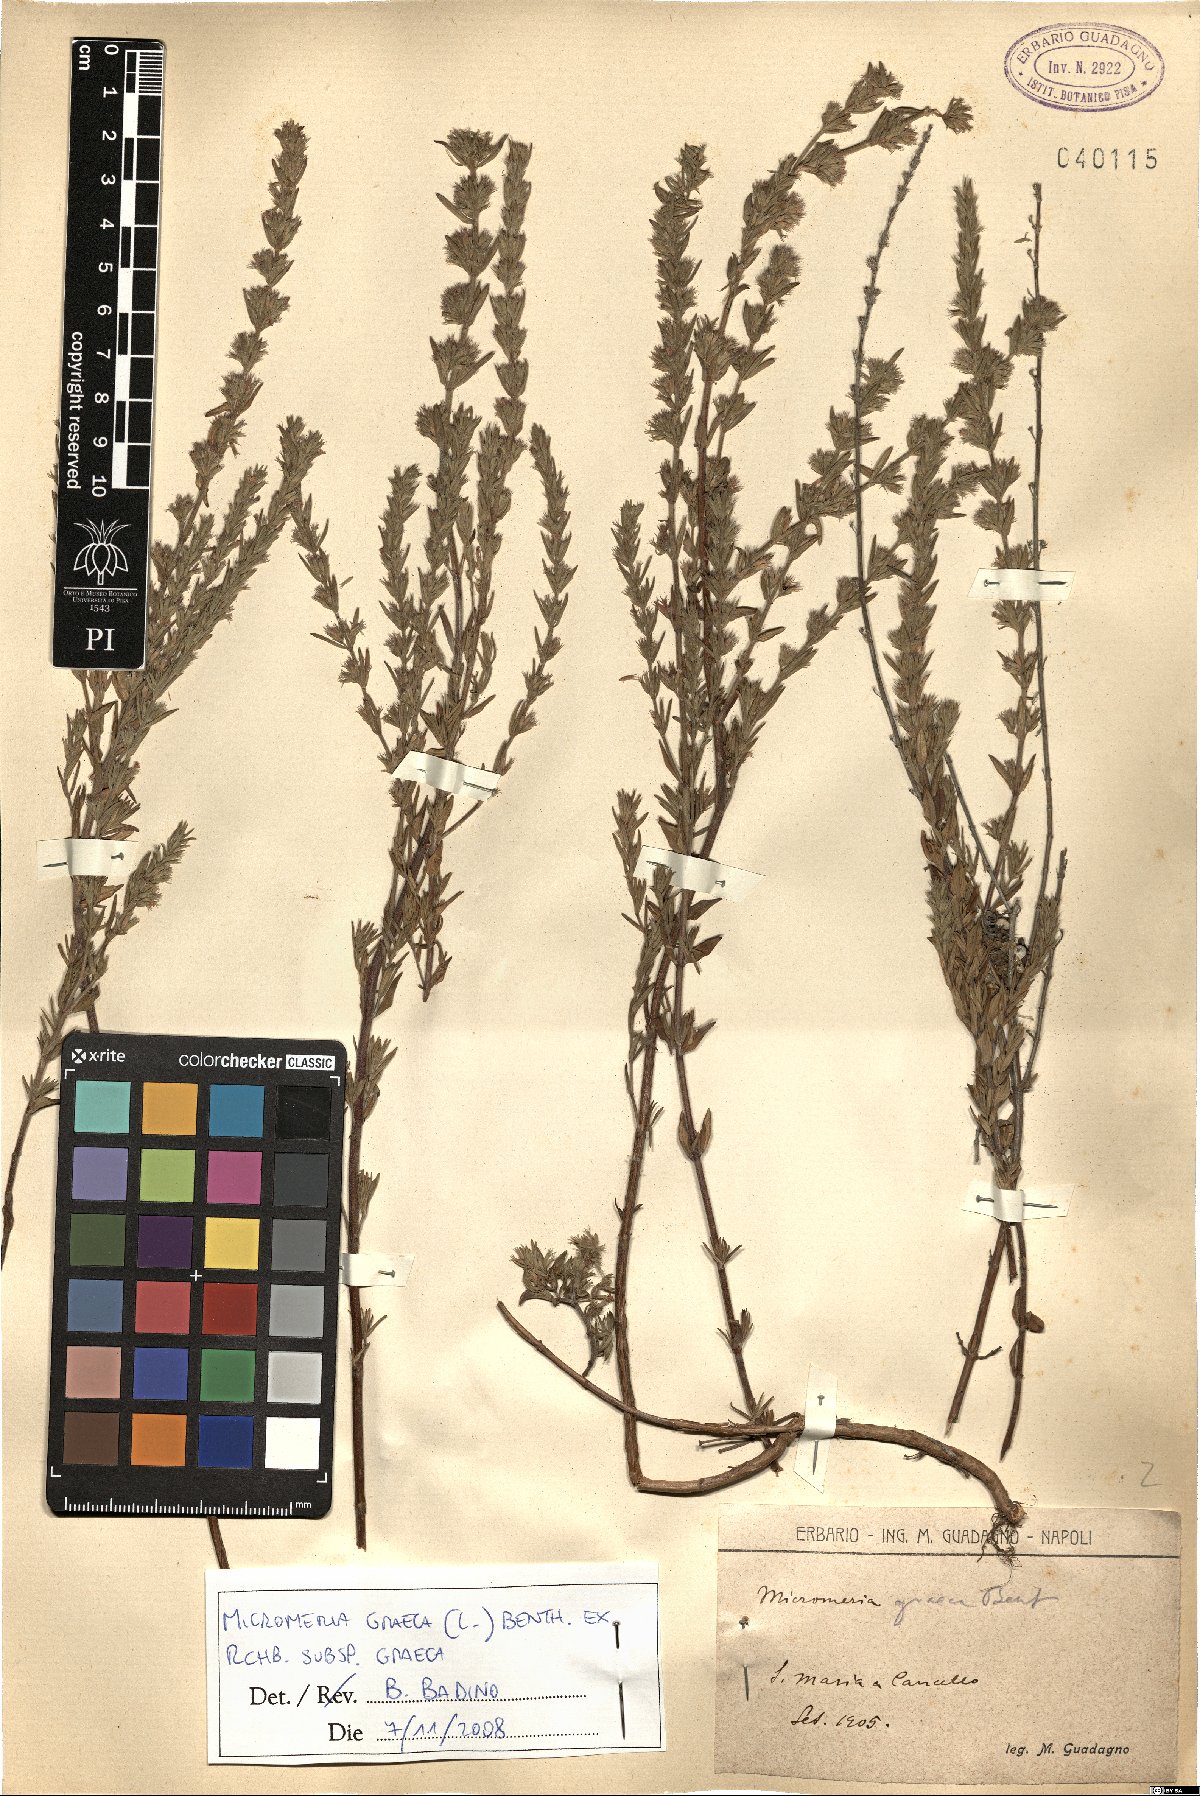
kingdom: Plantae
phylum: Tracheophyta
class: Magnoliopsida
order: Lamiales
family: Lamiaceae
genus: Micromeria
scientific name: Micromeria graeca
